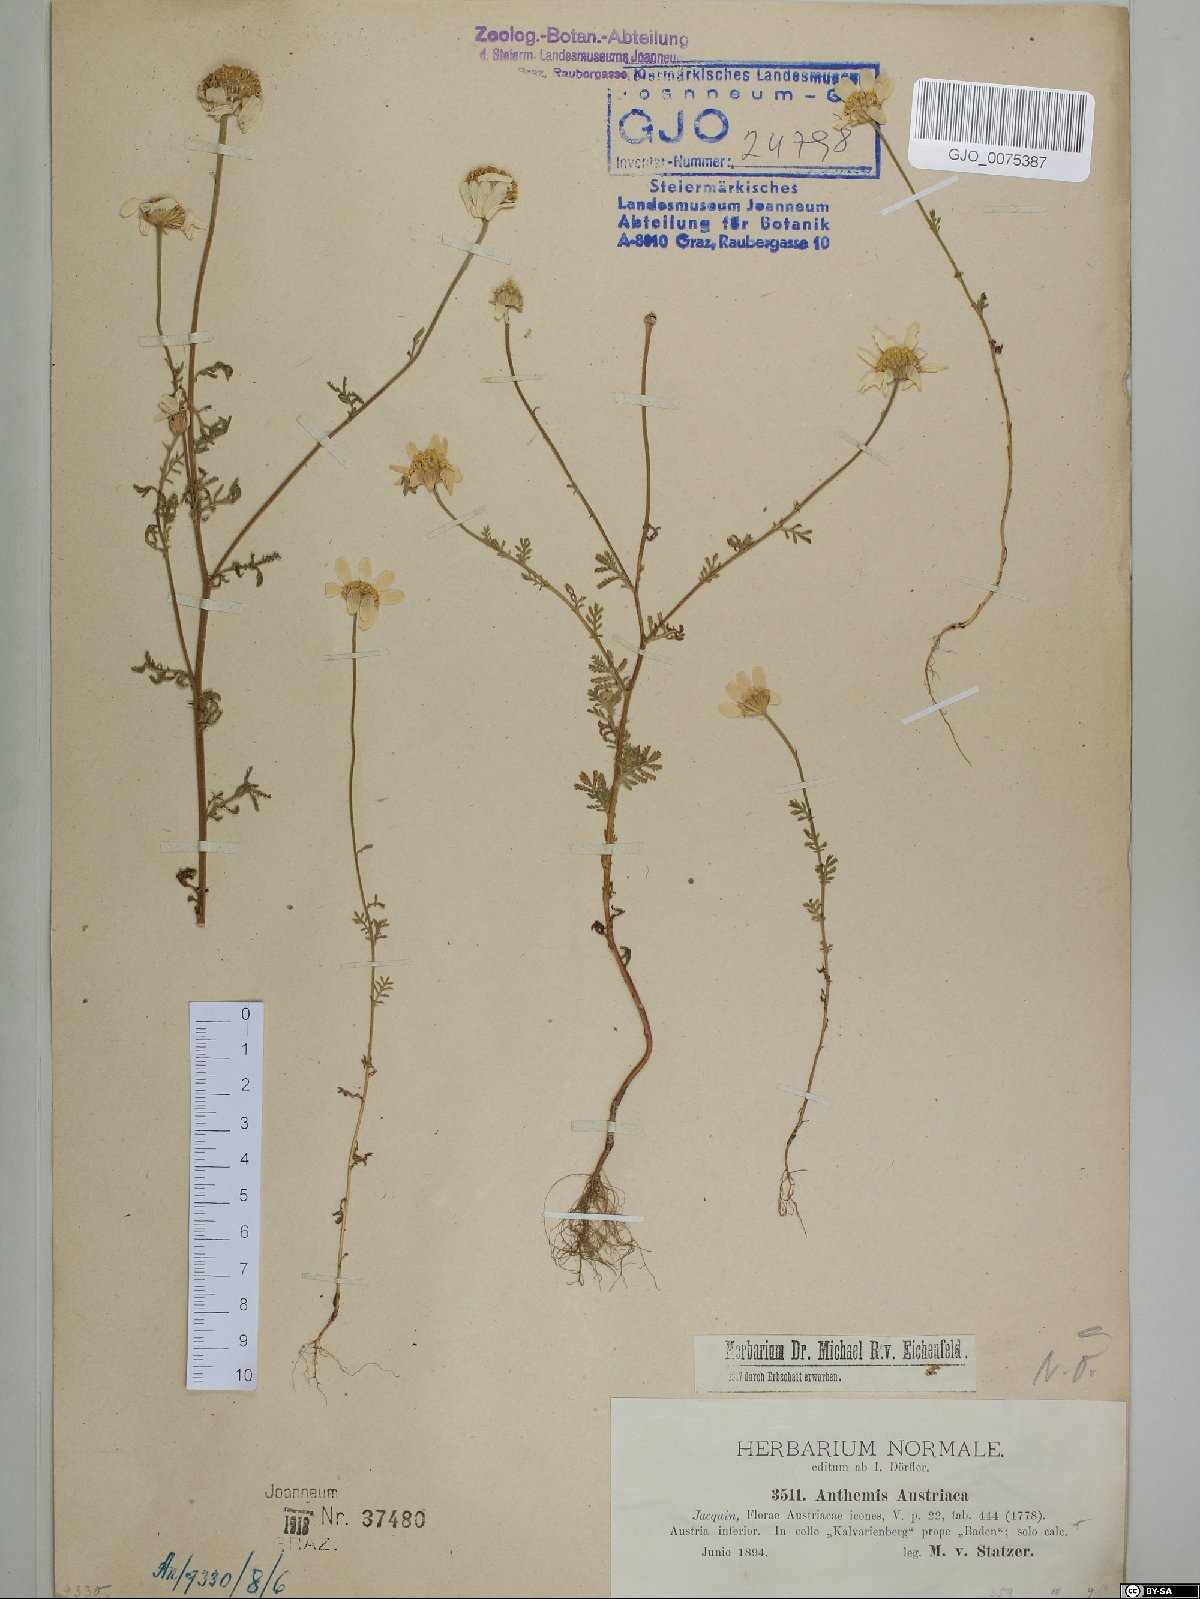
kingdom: Plantae
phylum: Tracheophyta
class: Magnoliopsida
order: Asterales
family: Asteraceae
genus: Cota
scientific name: Cota austriaca
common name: Austrian chamomile
